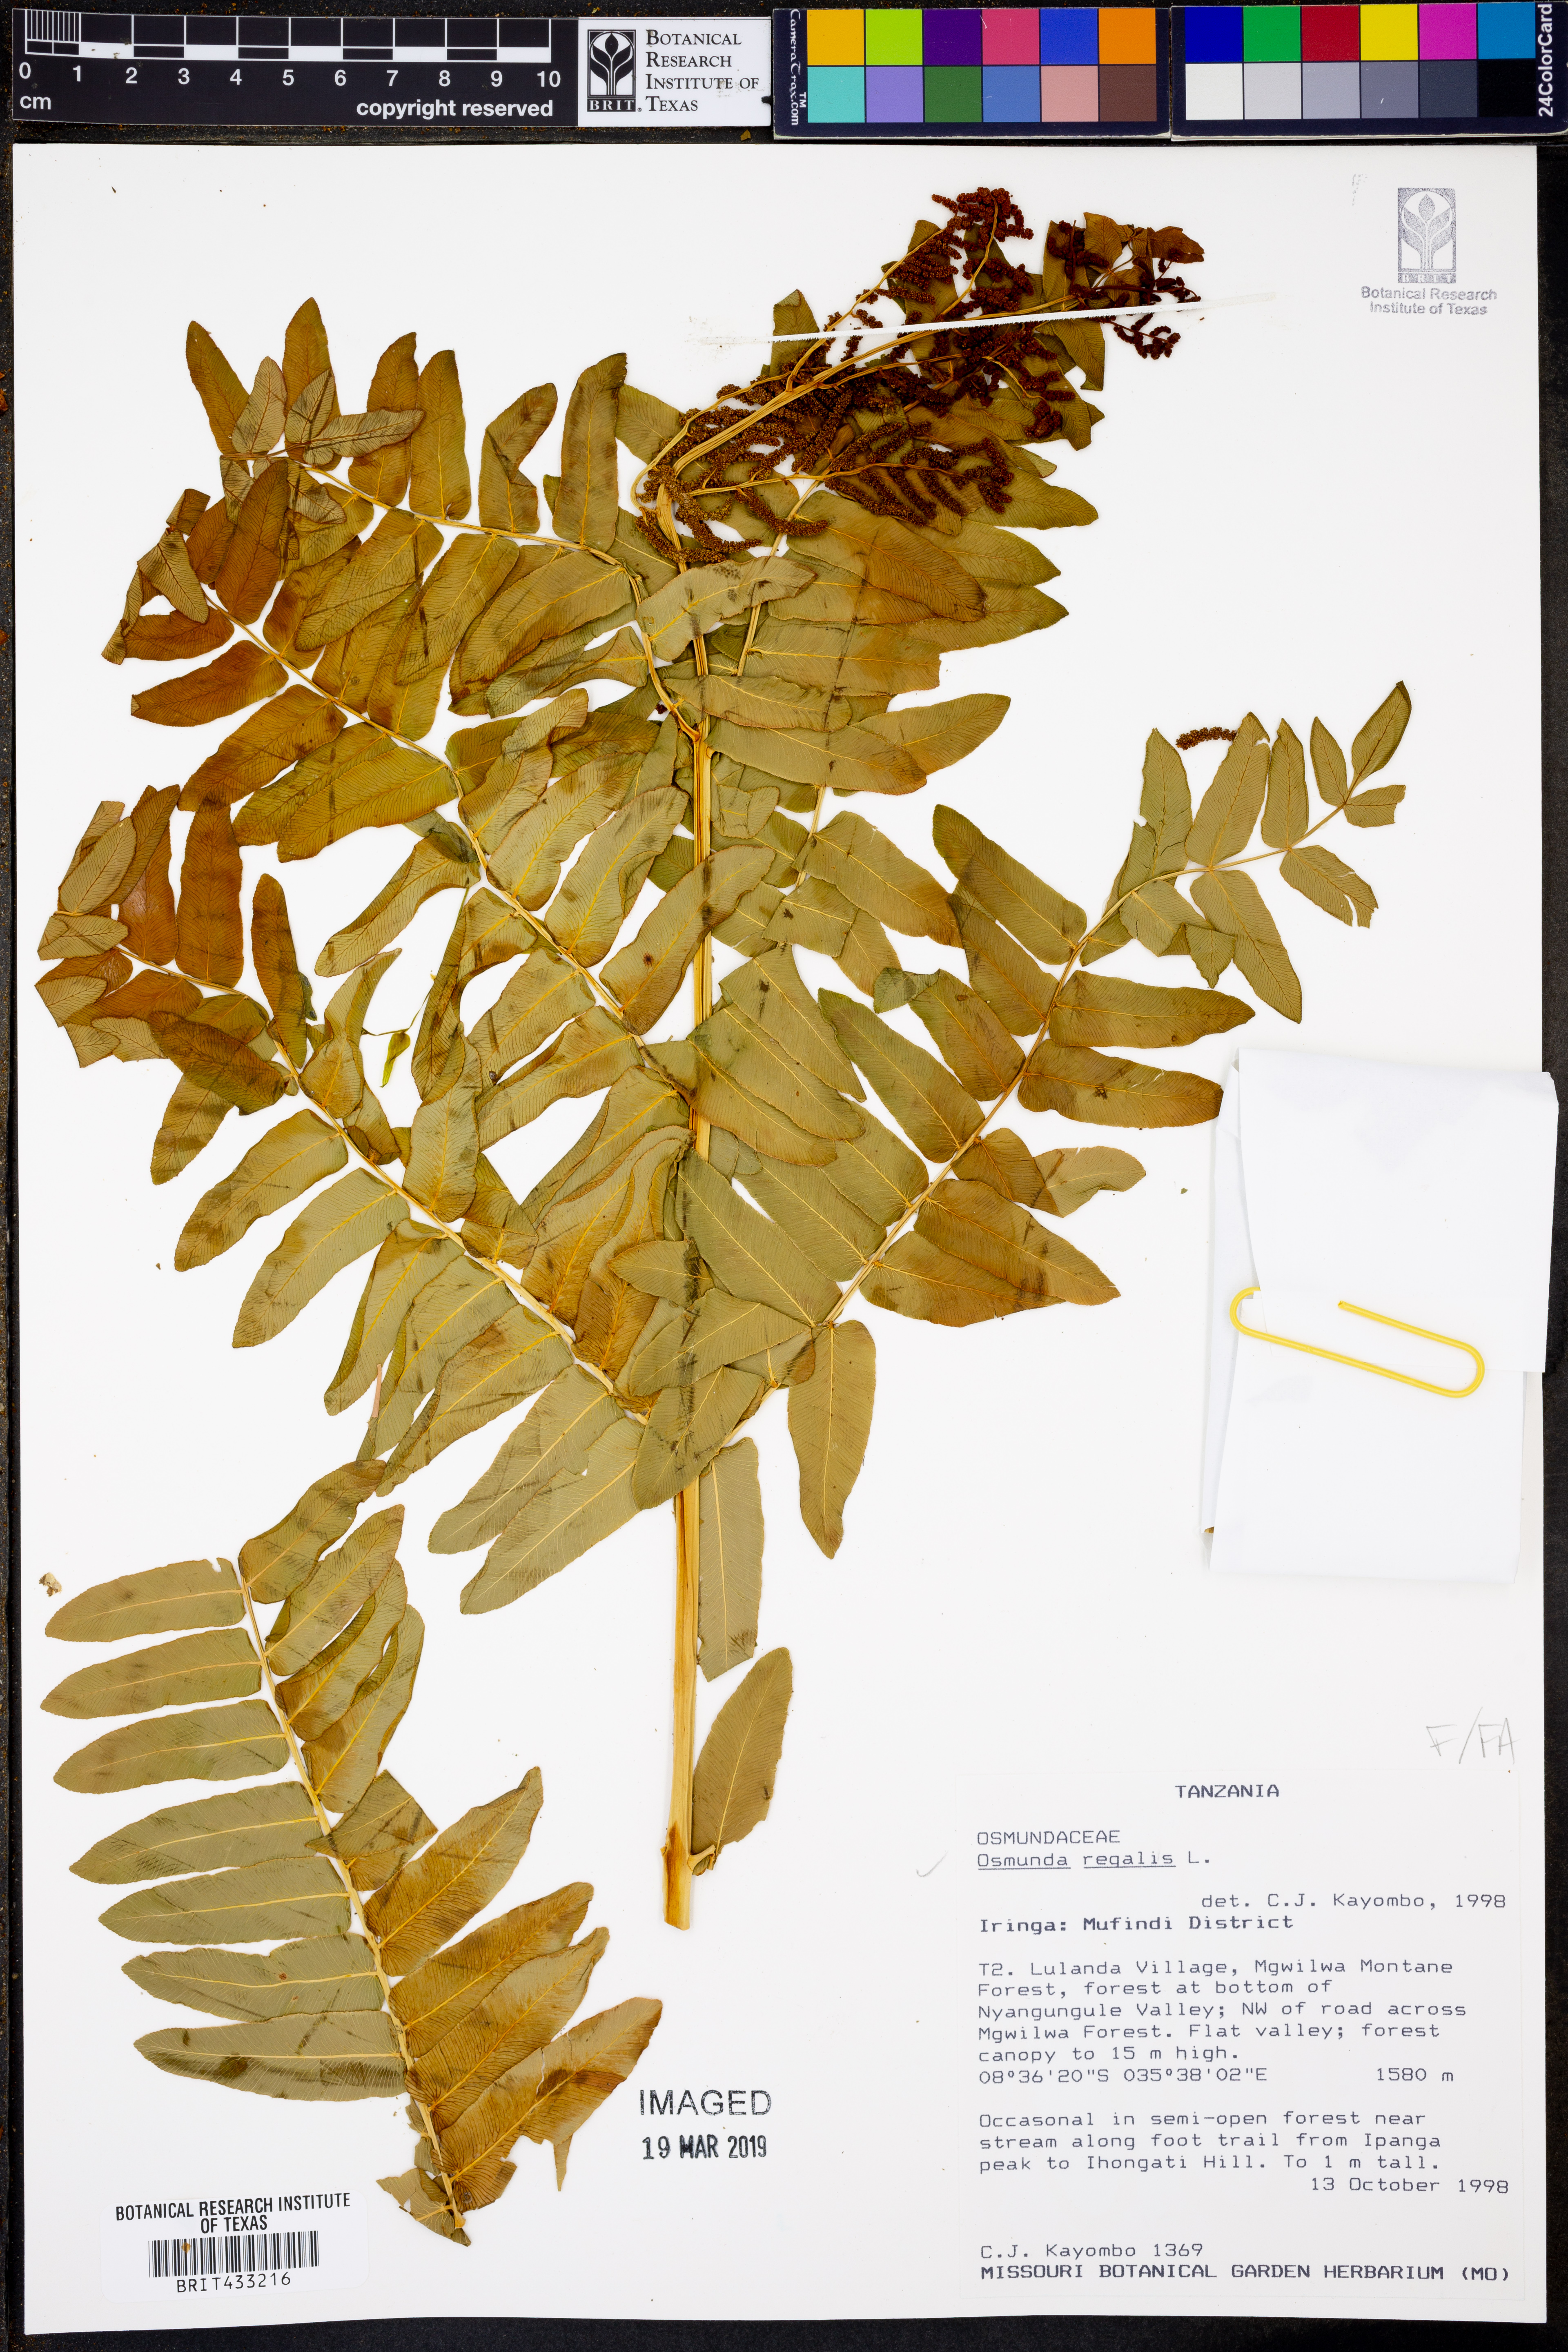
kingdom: Plantae
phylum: Tracheophyta
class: Polypodiopsida
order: Osmundales
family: Osmundaceae
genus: Osmunda
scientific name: Osmunda regalis
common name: Royal fern
